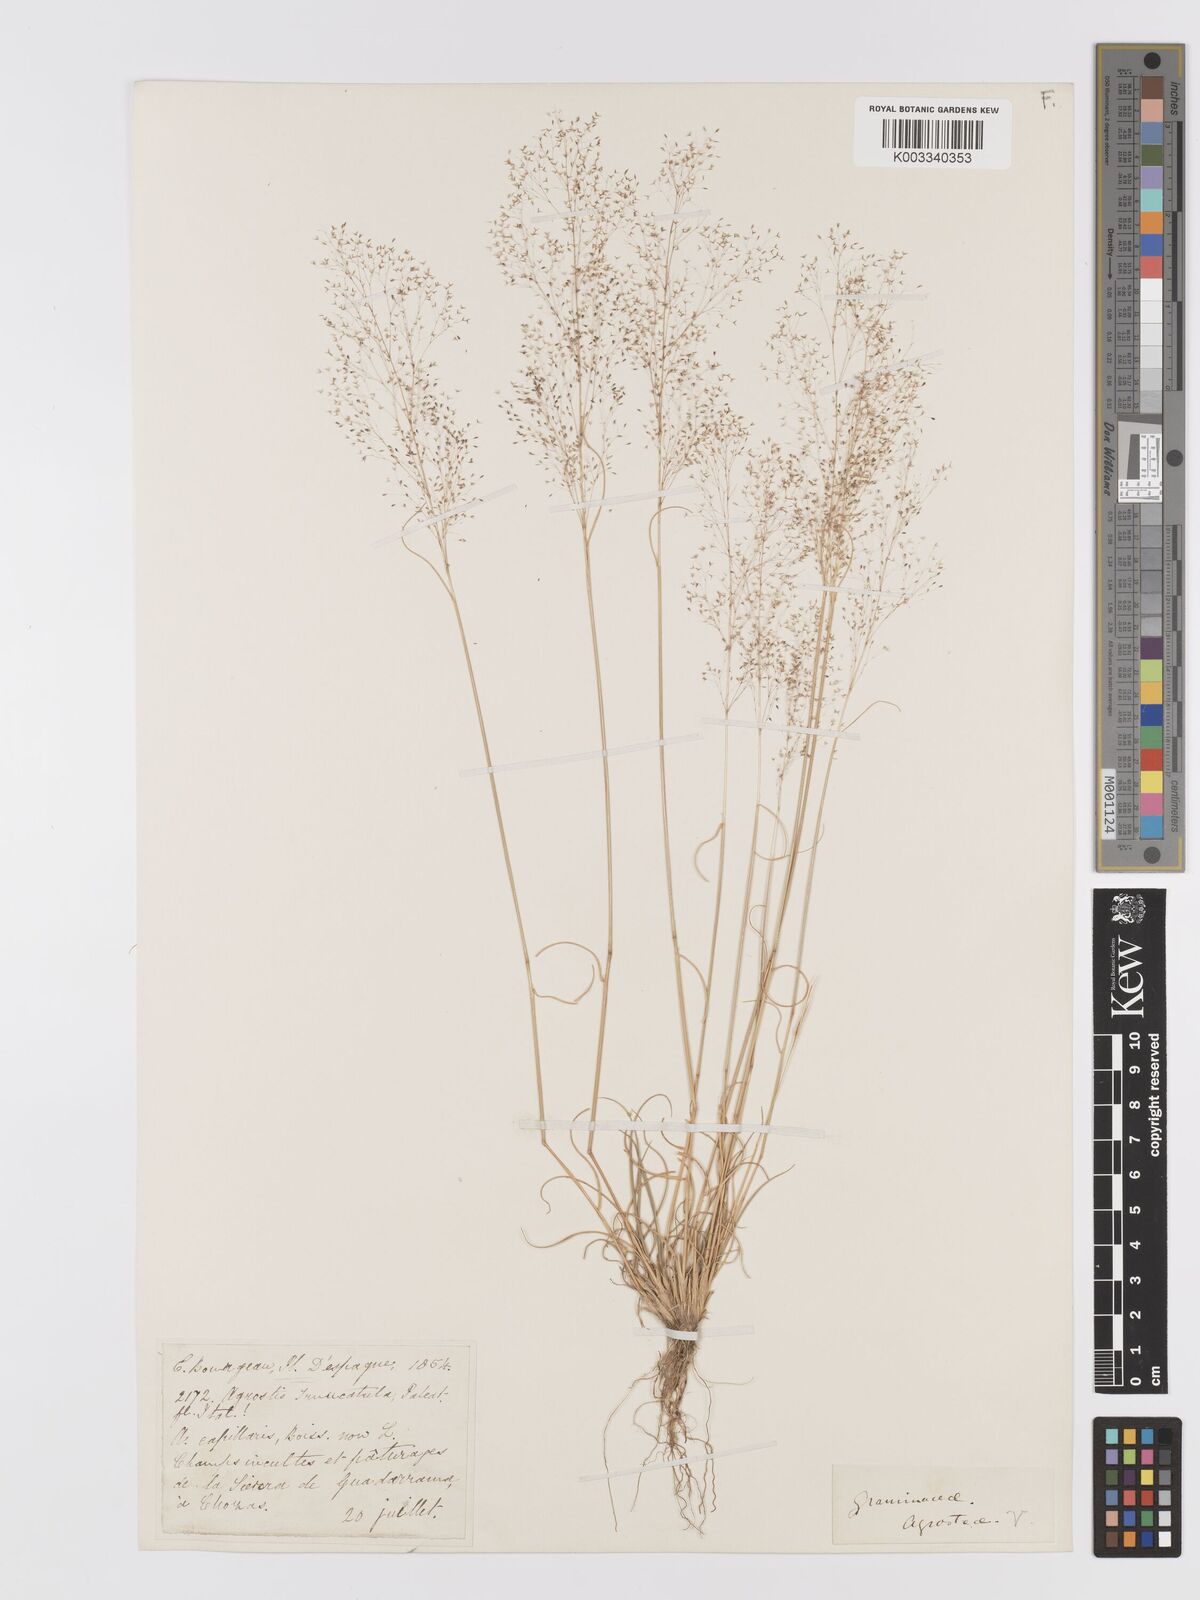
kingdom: Plantae
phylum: Tracheophyta
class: Liliopsida
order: Poales
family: Poaceae
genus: Agrostis
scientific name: Agrostis castellana
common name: Highland bent
